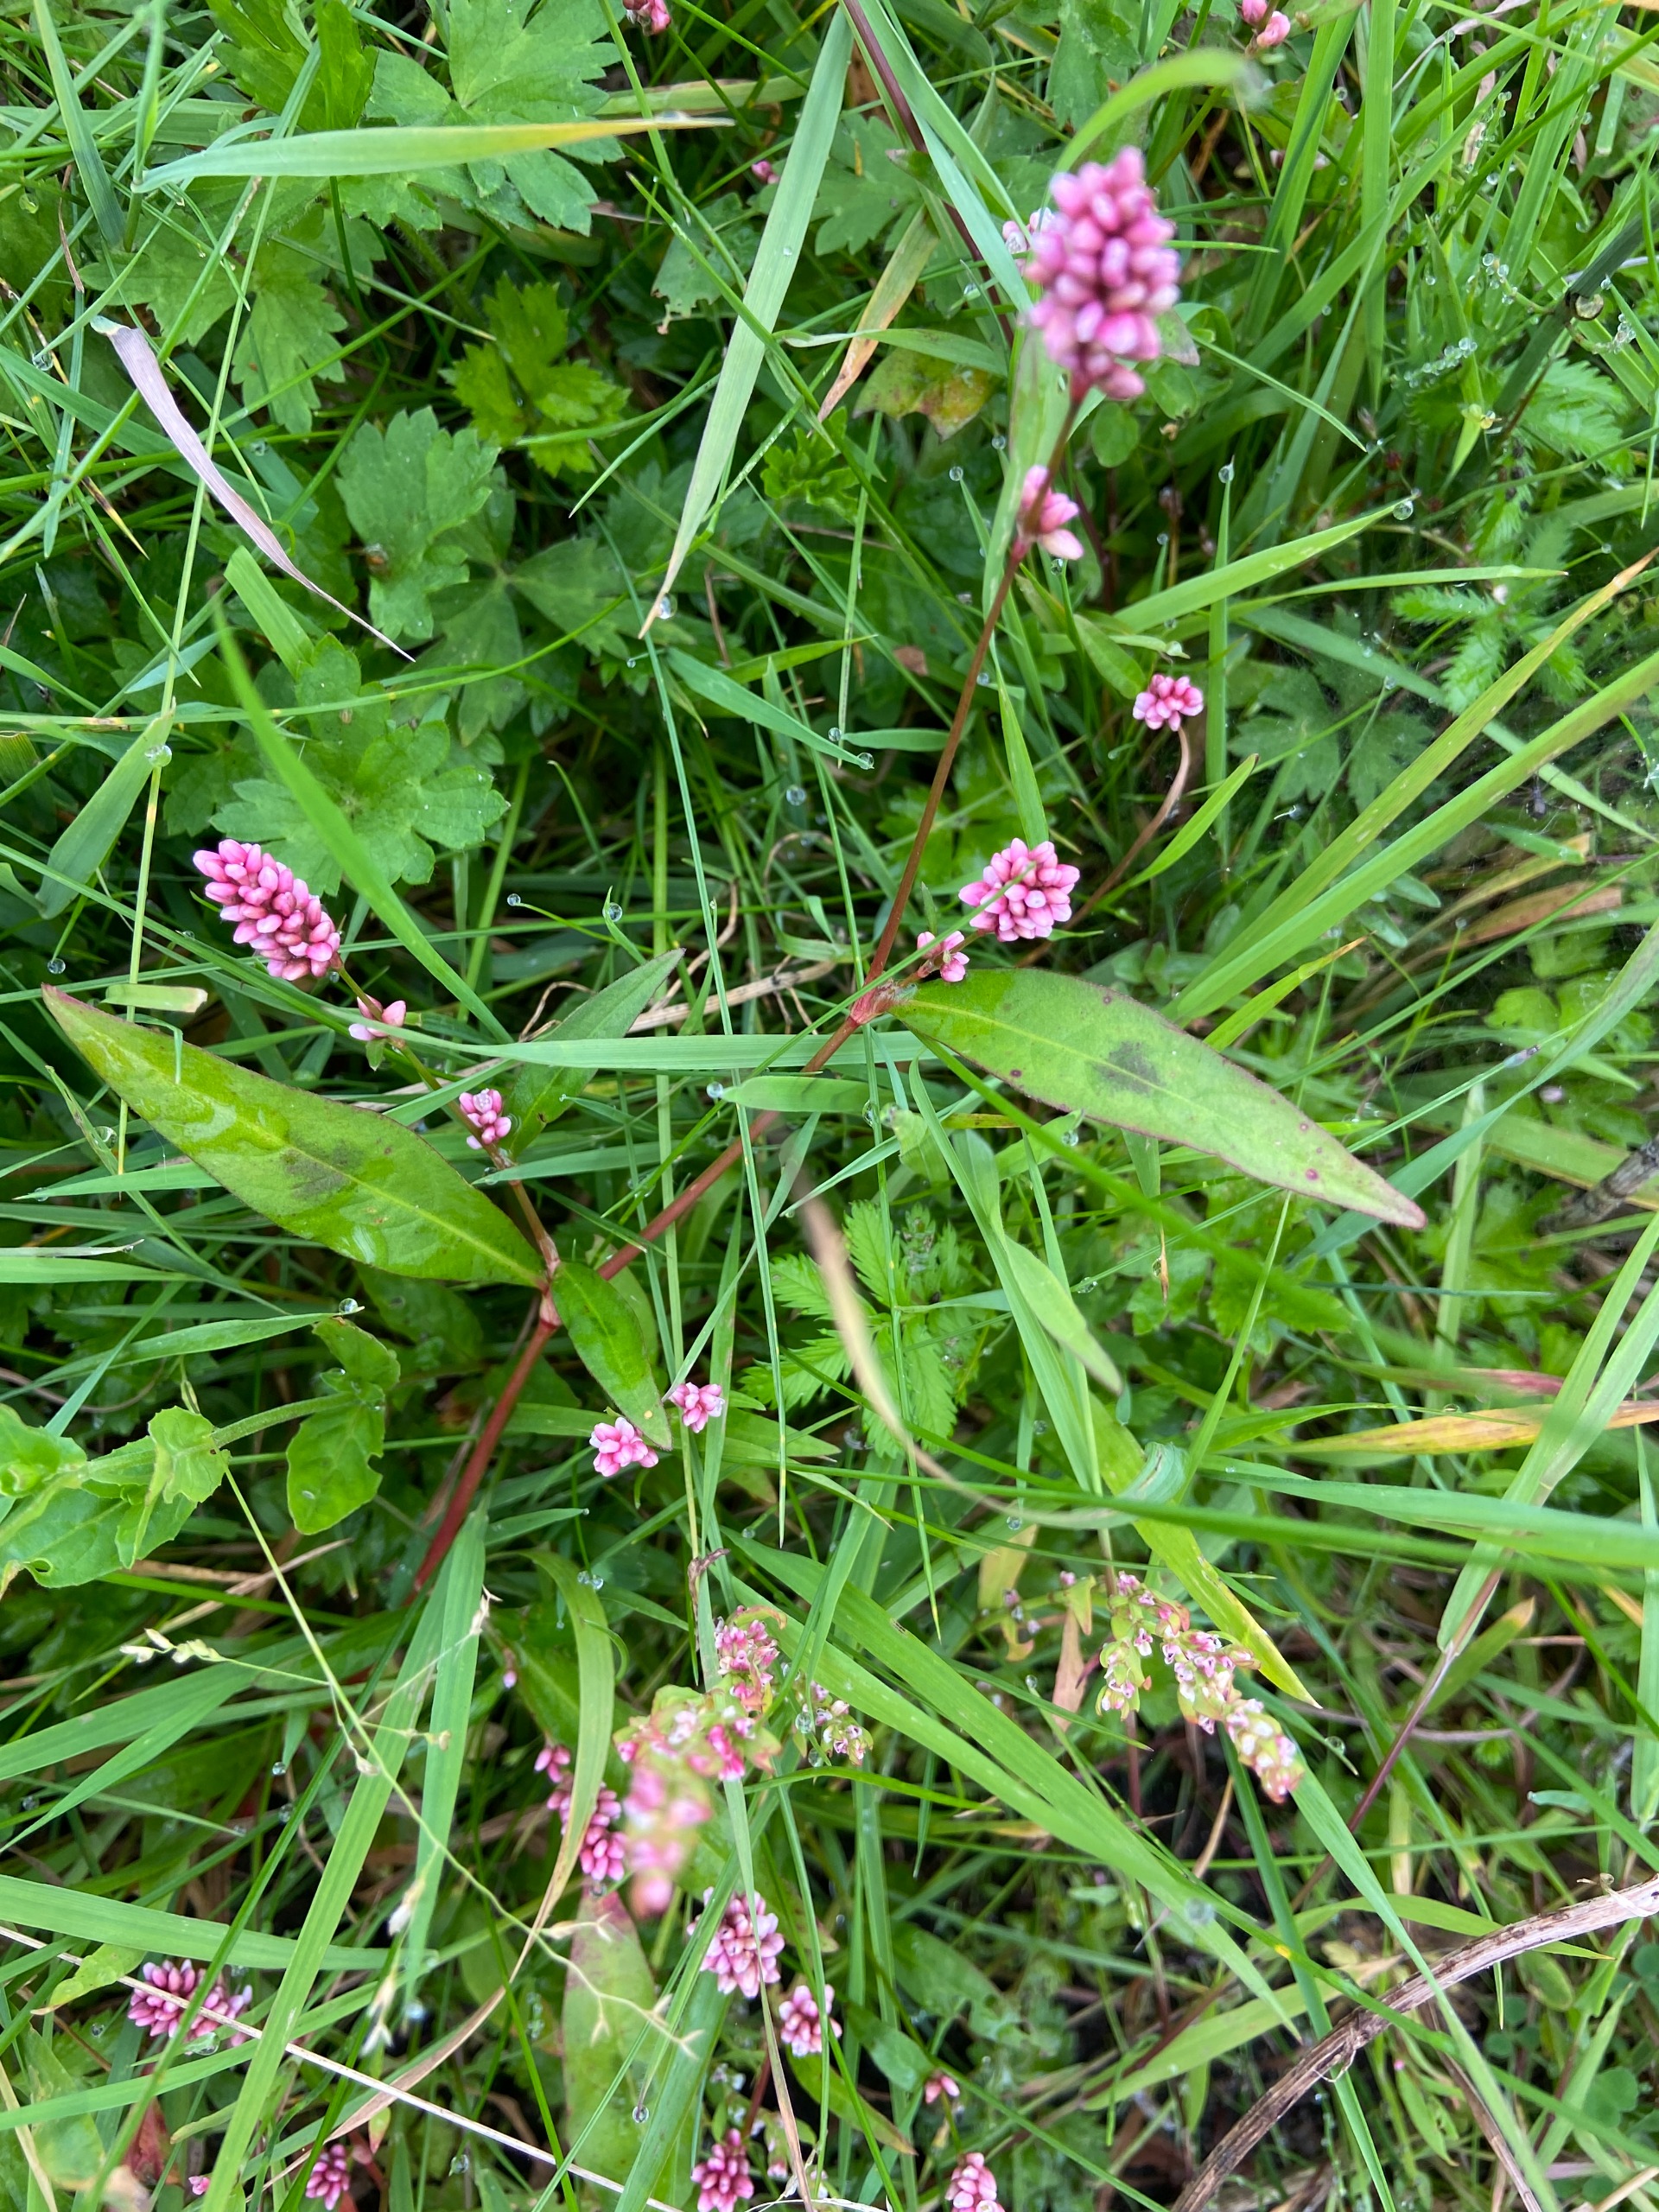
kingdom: Plantae
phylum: Tracheophyta
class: Magnoliopsida
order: Caryophyllales
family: Polygonaceae
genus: Persicaria
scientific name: Persicaria maculosa
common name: Fersken-pileurt
